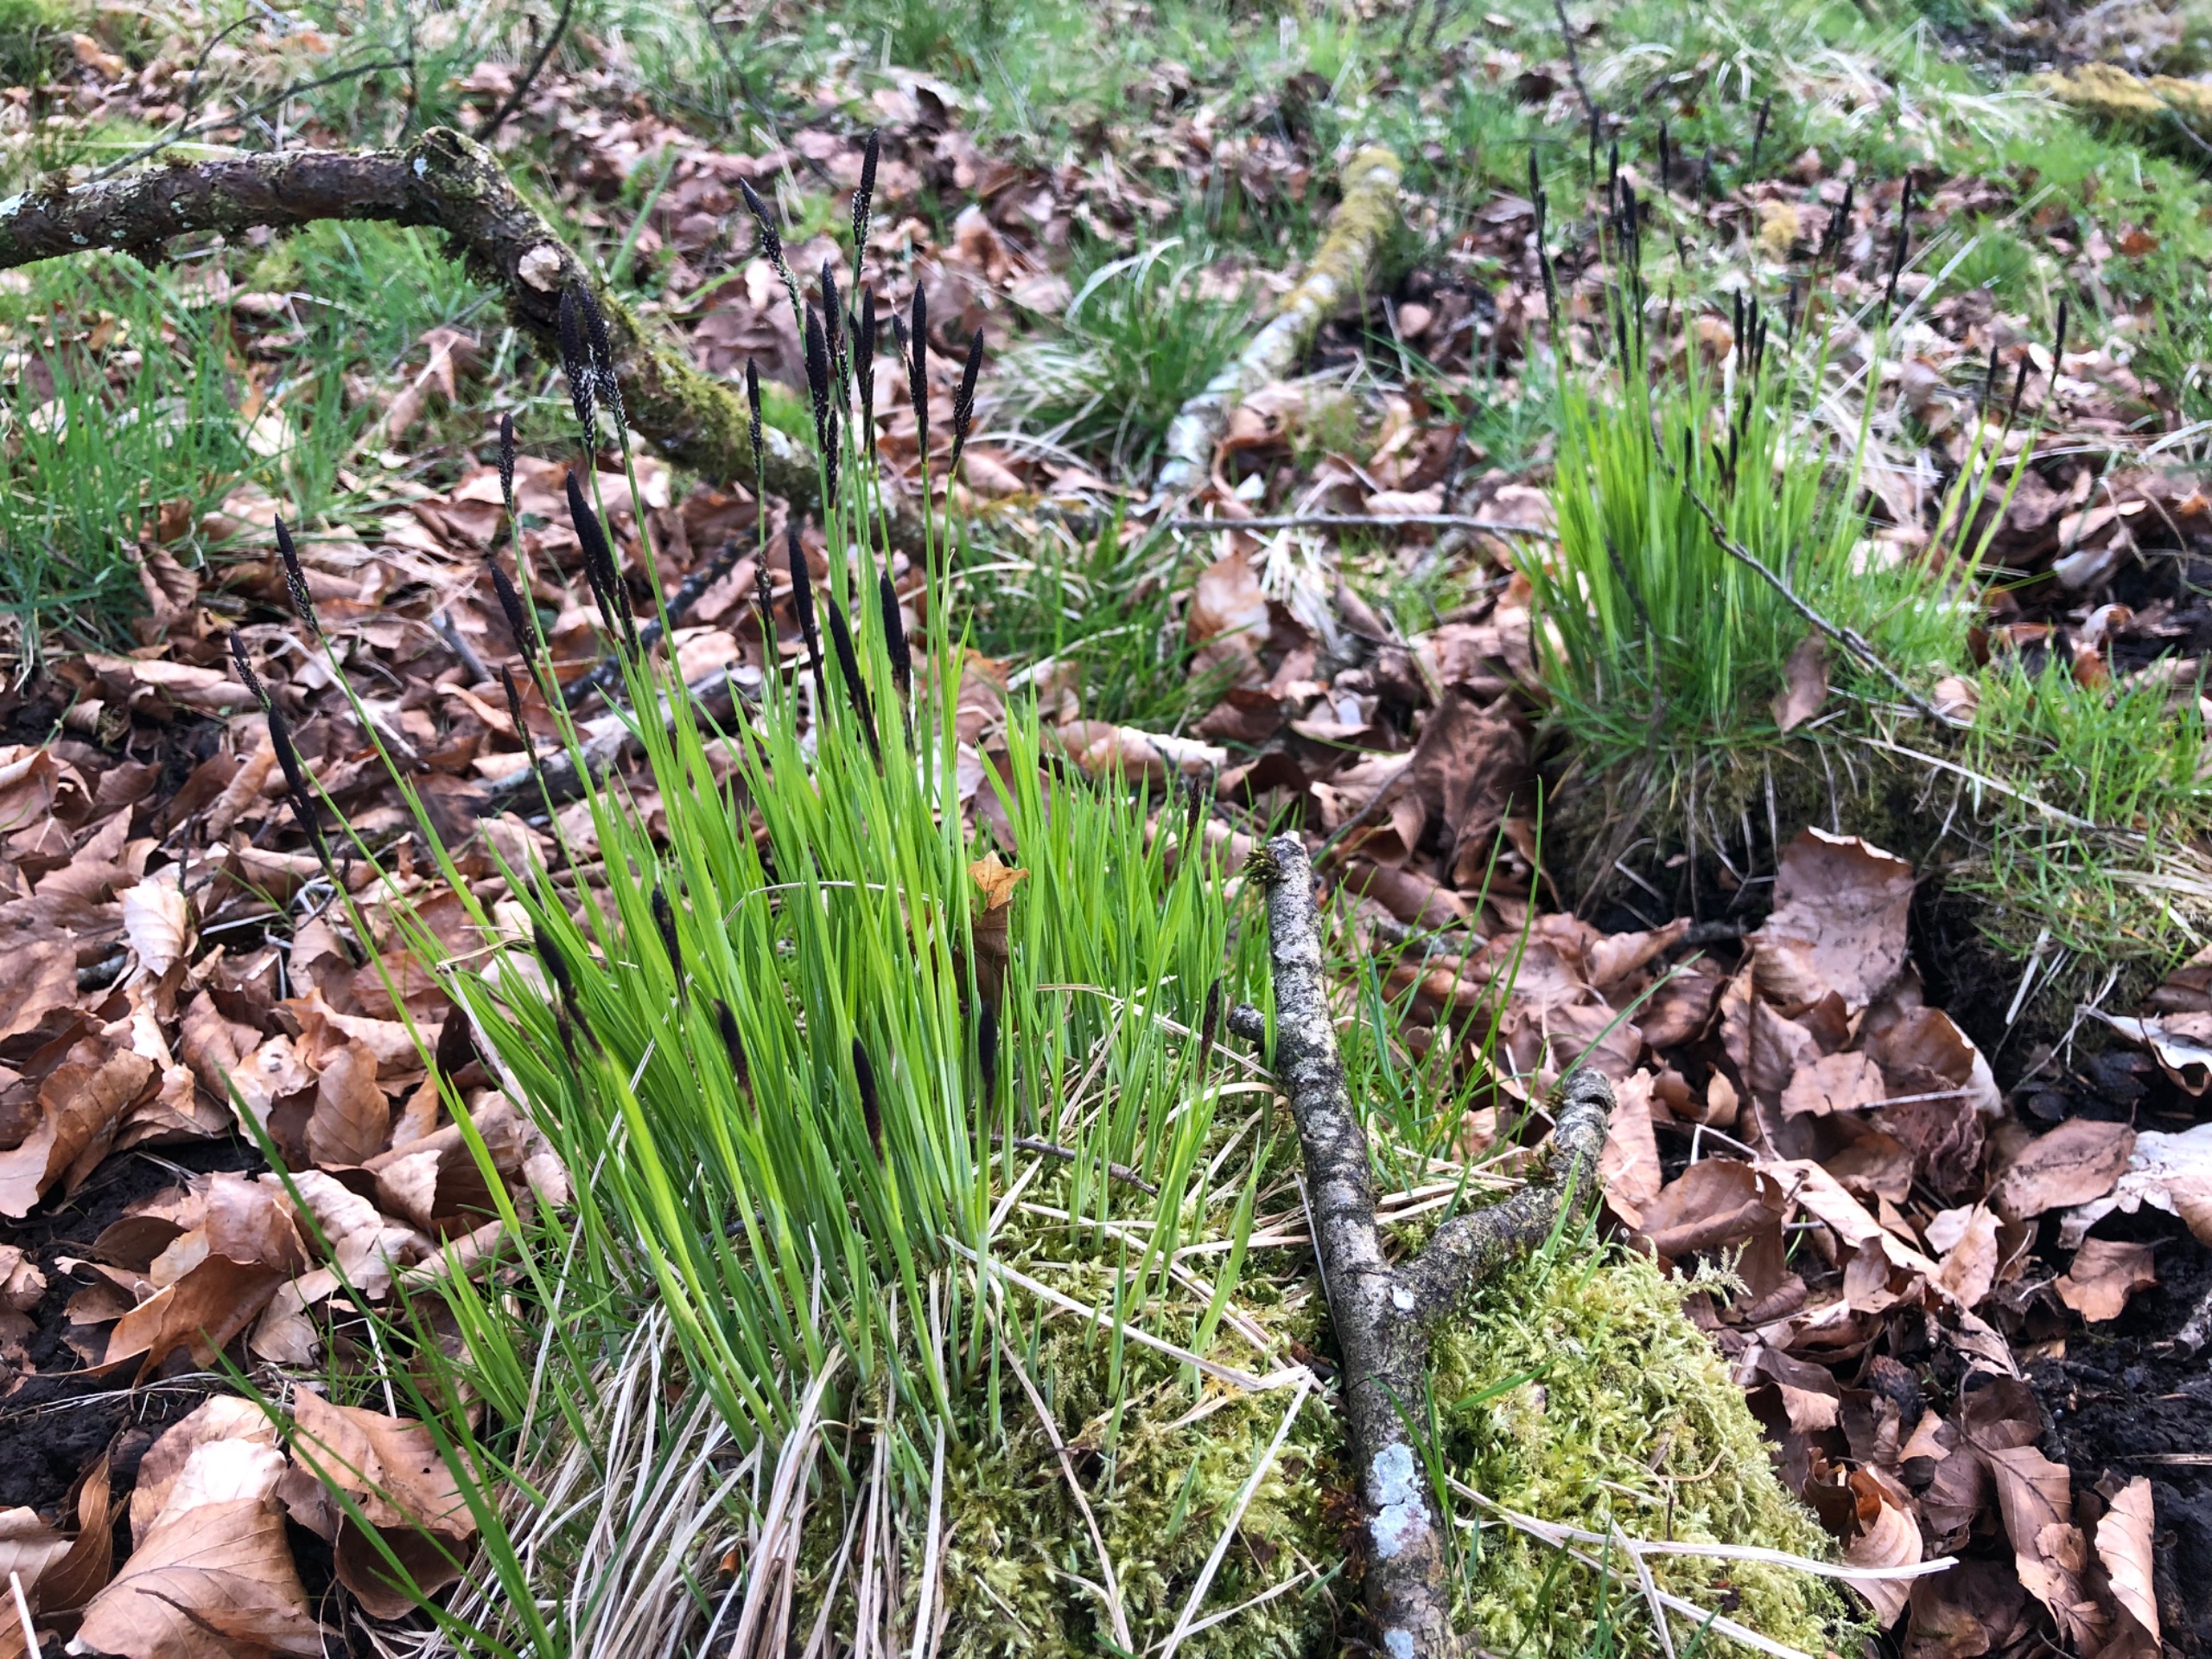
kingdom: Plantae
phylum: Tracheophyta
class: Liliopsida
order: Poales
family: Cyperaceae
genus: Carex
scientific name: Carex cespitosa
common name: Tue-star
